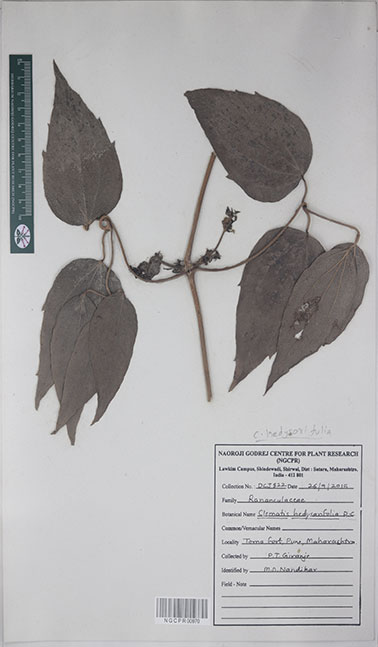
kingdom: Plantae
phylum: Tracheophyta
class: Magnoliopsida
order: Ranunculales
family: Ranunculaceae
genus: Clematis
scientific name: Clematis hedysarifolia
